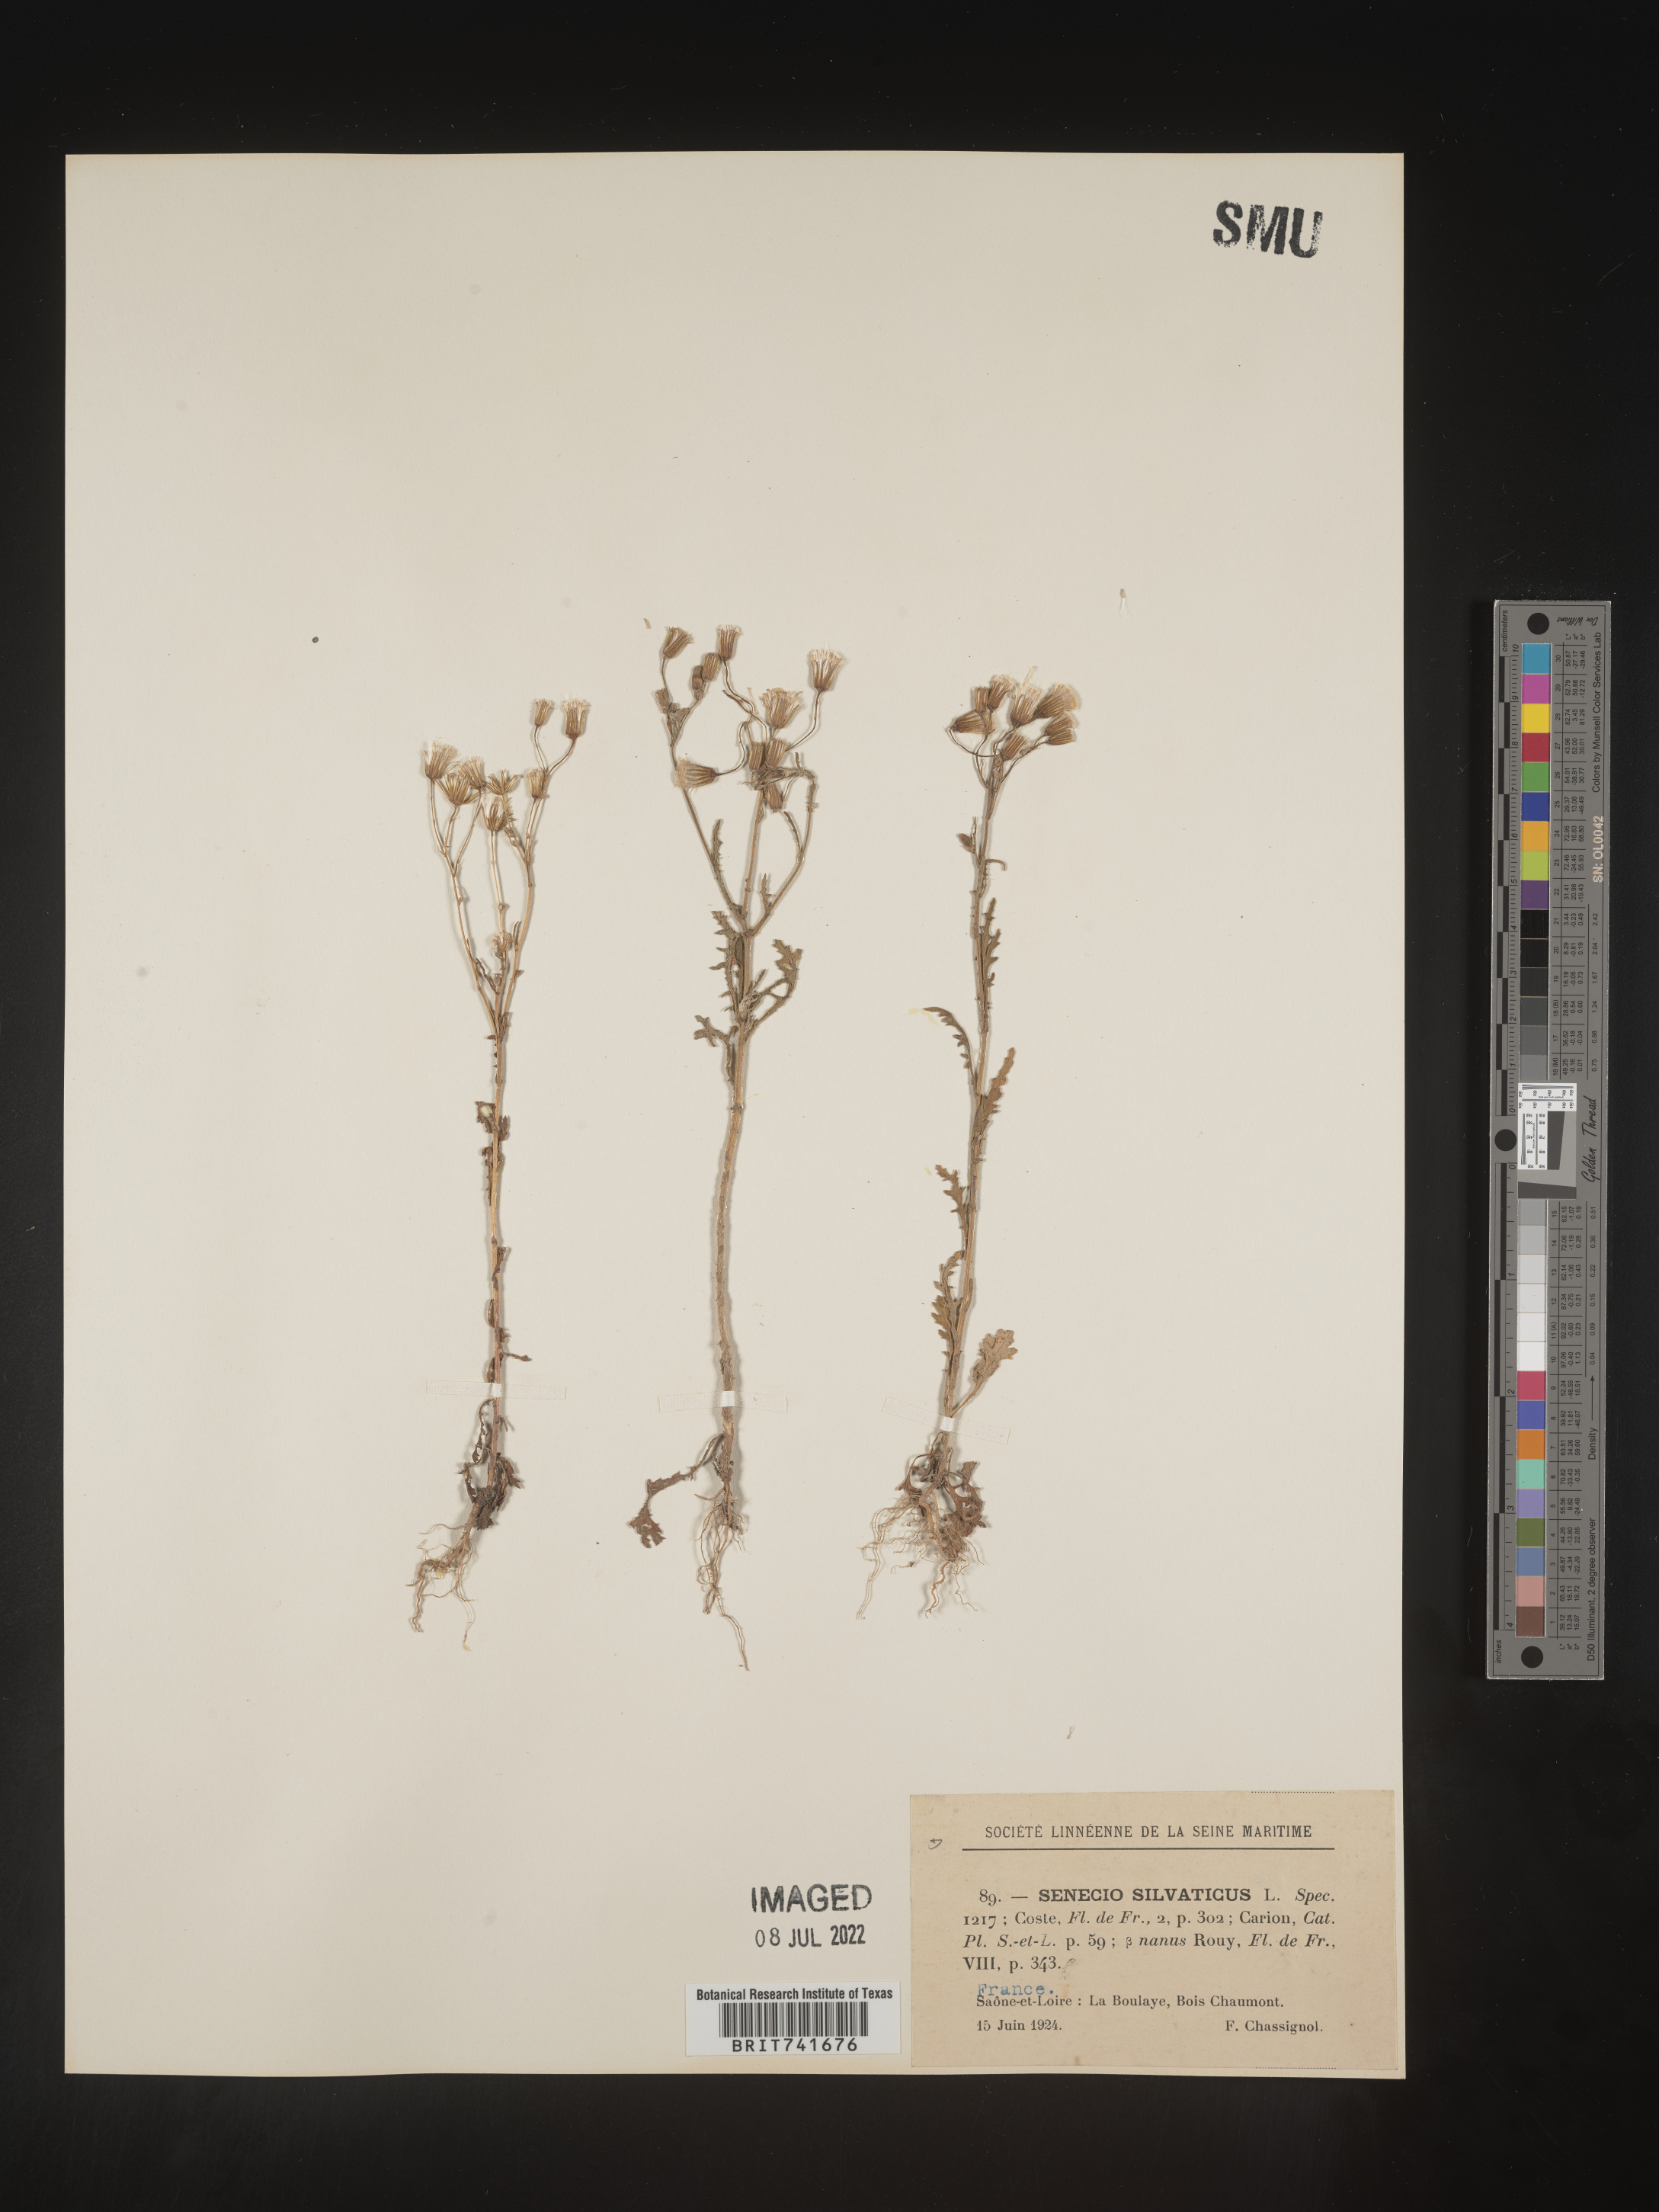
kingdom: Plantae
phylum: Tracheophyta
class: Magnoliopsida
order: Asterales
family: Asteraceae
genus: Senecio
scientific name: Senecio
